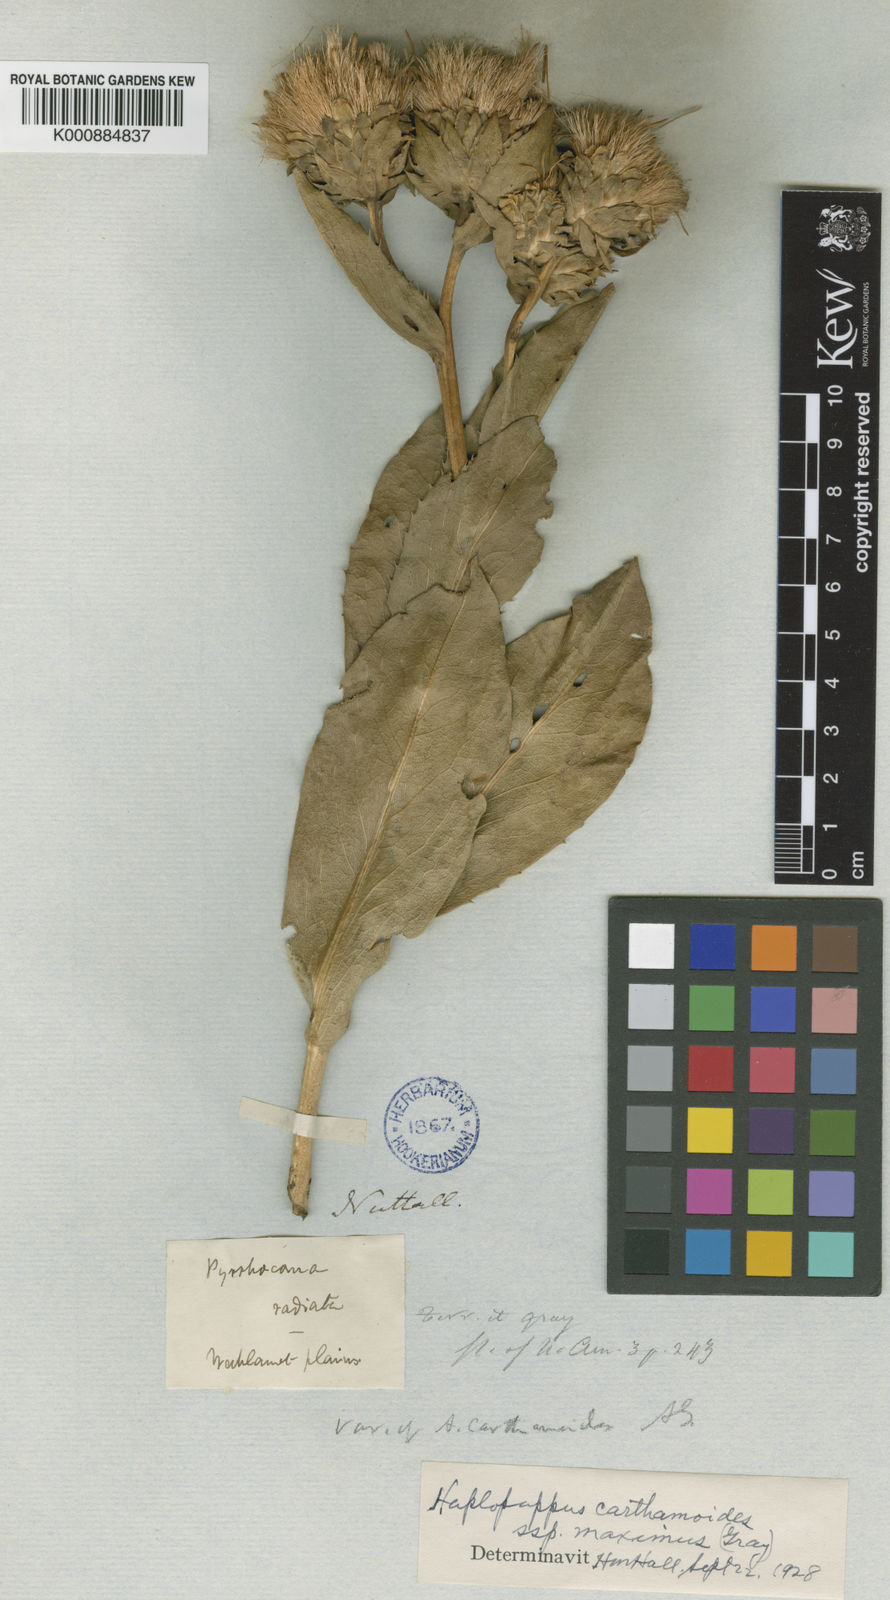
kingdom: Plantae
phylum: Tracheophyta
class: Magnoliopsida
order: Asterales
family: Asteraceae
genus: Pyrrocoma
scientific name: Pyrrocoma carthamoides
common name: Large-flower goldenweed
